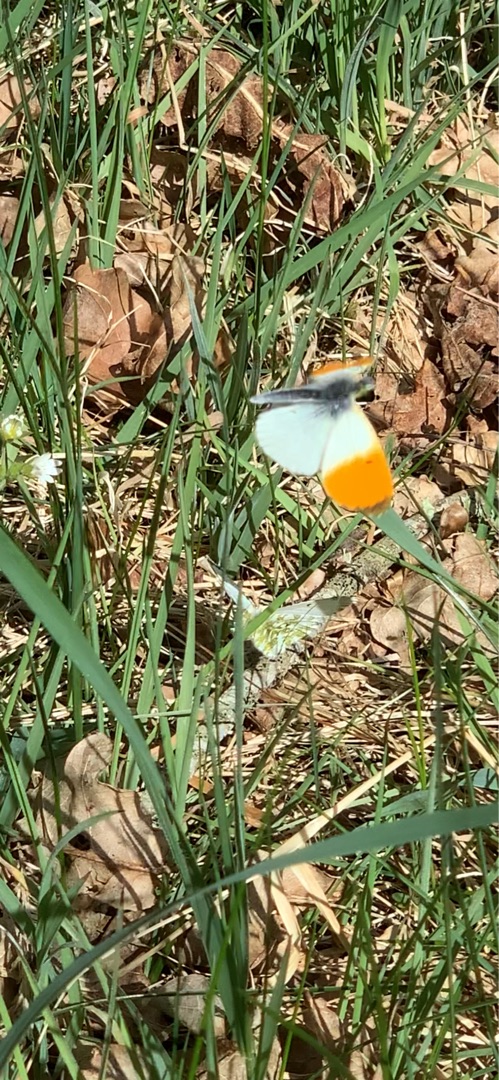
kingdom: Animalia
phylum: Arthropoda
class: Insecta
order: Lepidoptera
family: Pieridae
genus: Anthocharis
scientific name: Anthocharis cardamines
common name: Aurora
